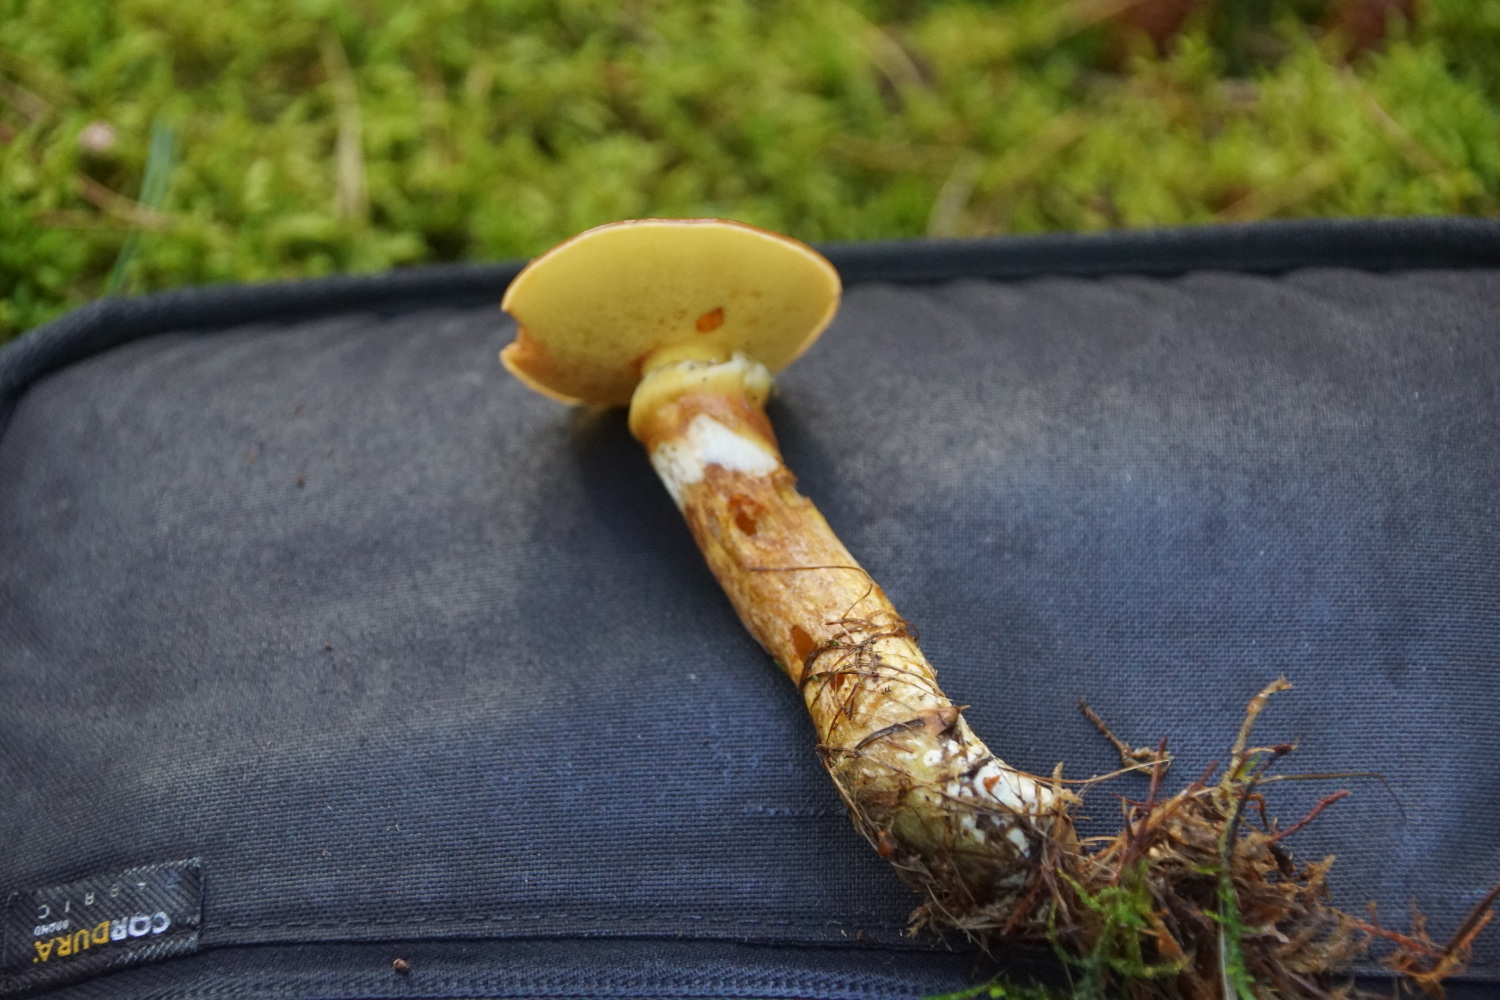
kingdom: Fungi
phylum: Basidiomycota
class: Agaricomycetes
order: Boletales
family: Suillaceae
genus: Suillus
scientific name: Suillus grevillei
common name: lærke-slimrørhat
